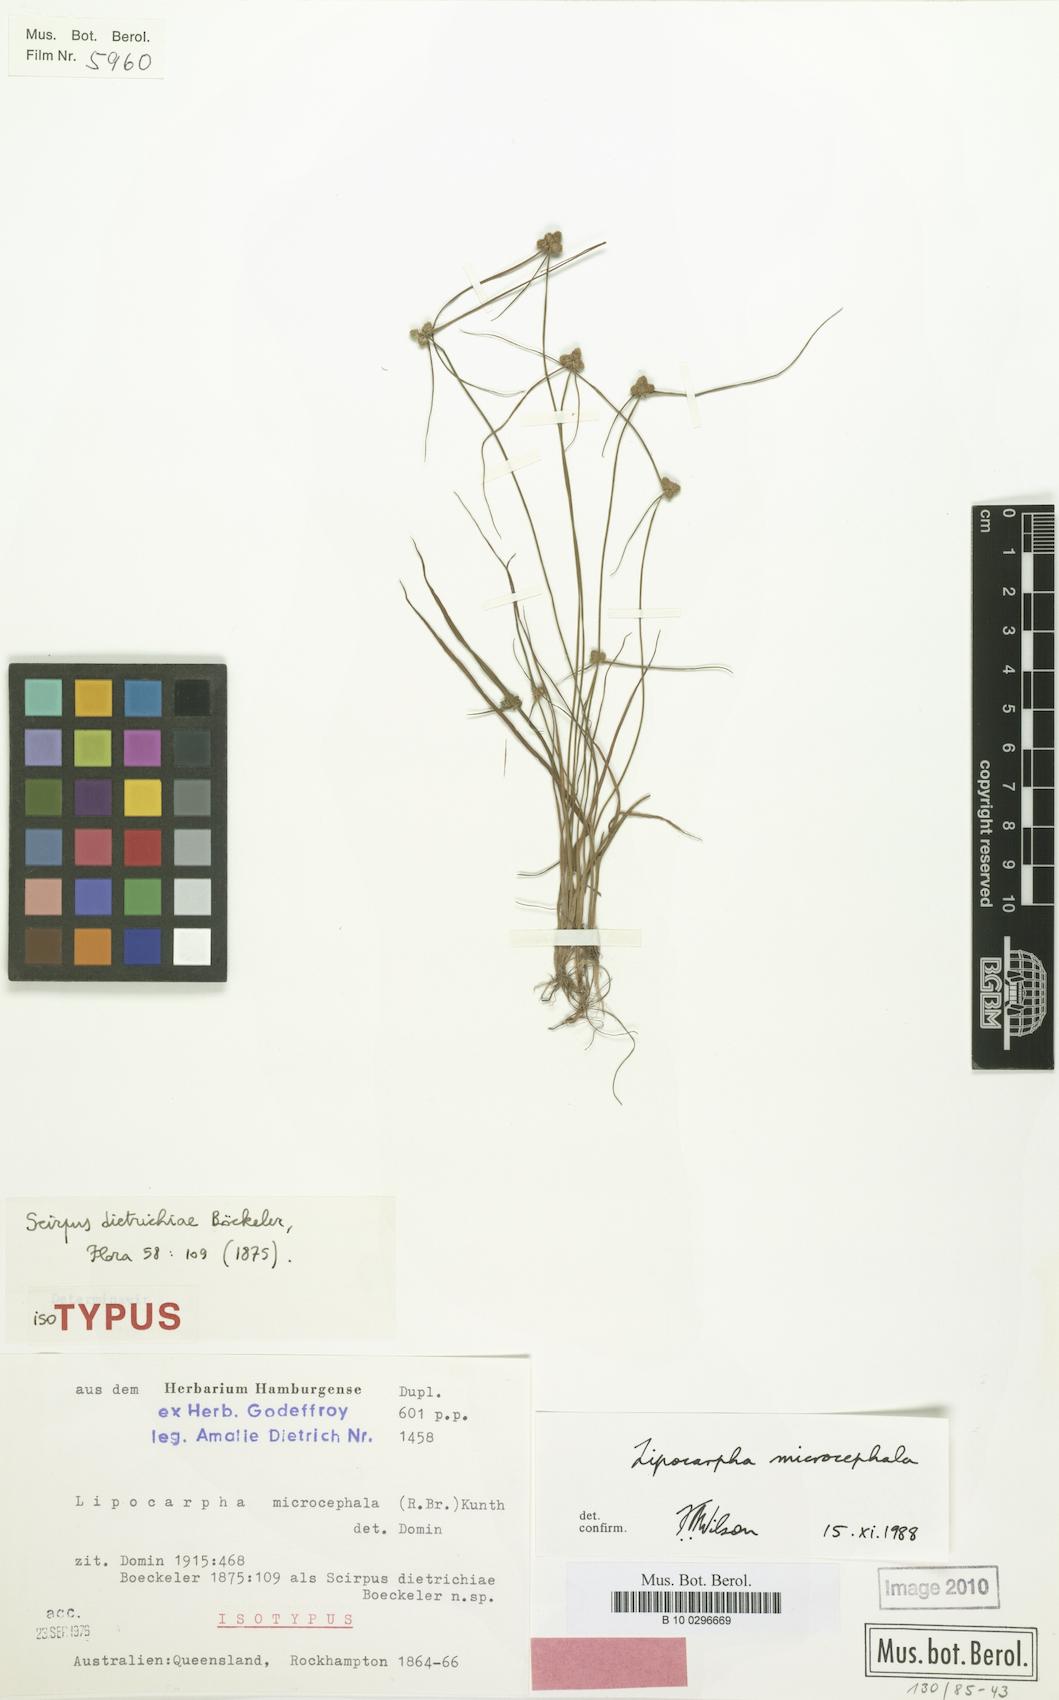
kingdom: Plantae
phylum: Tracheophyta
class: Liliopsida
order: Poales
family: Cyperaceae
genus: Cyperus
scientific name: Cyperus leptocarpus
